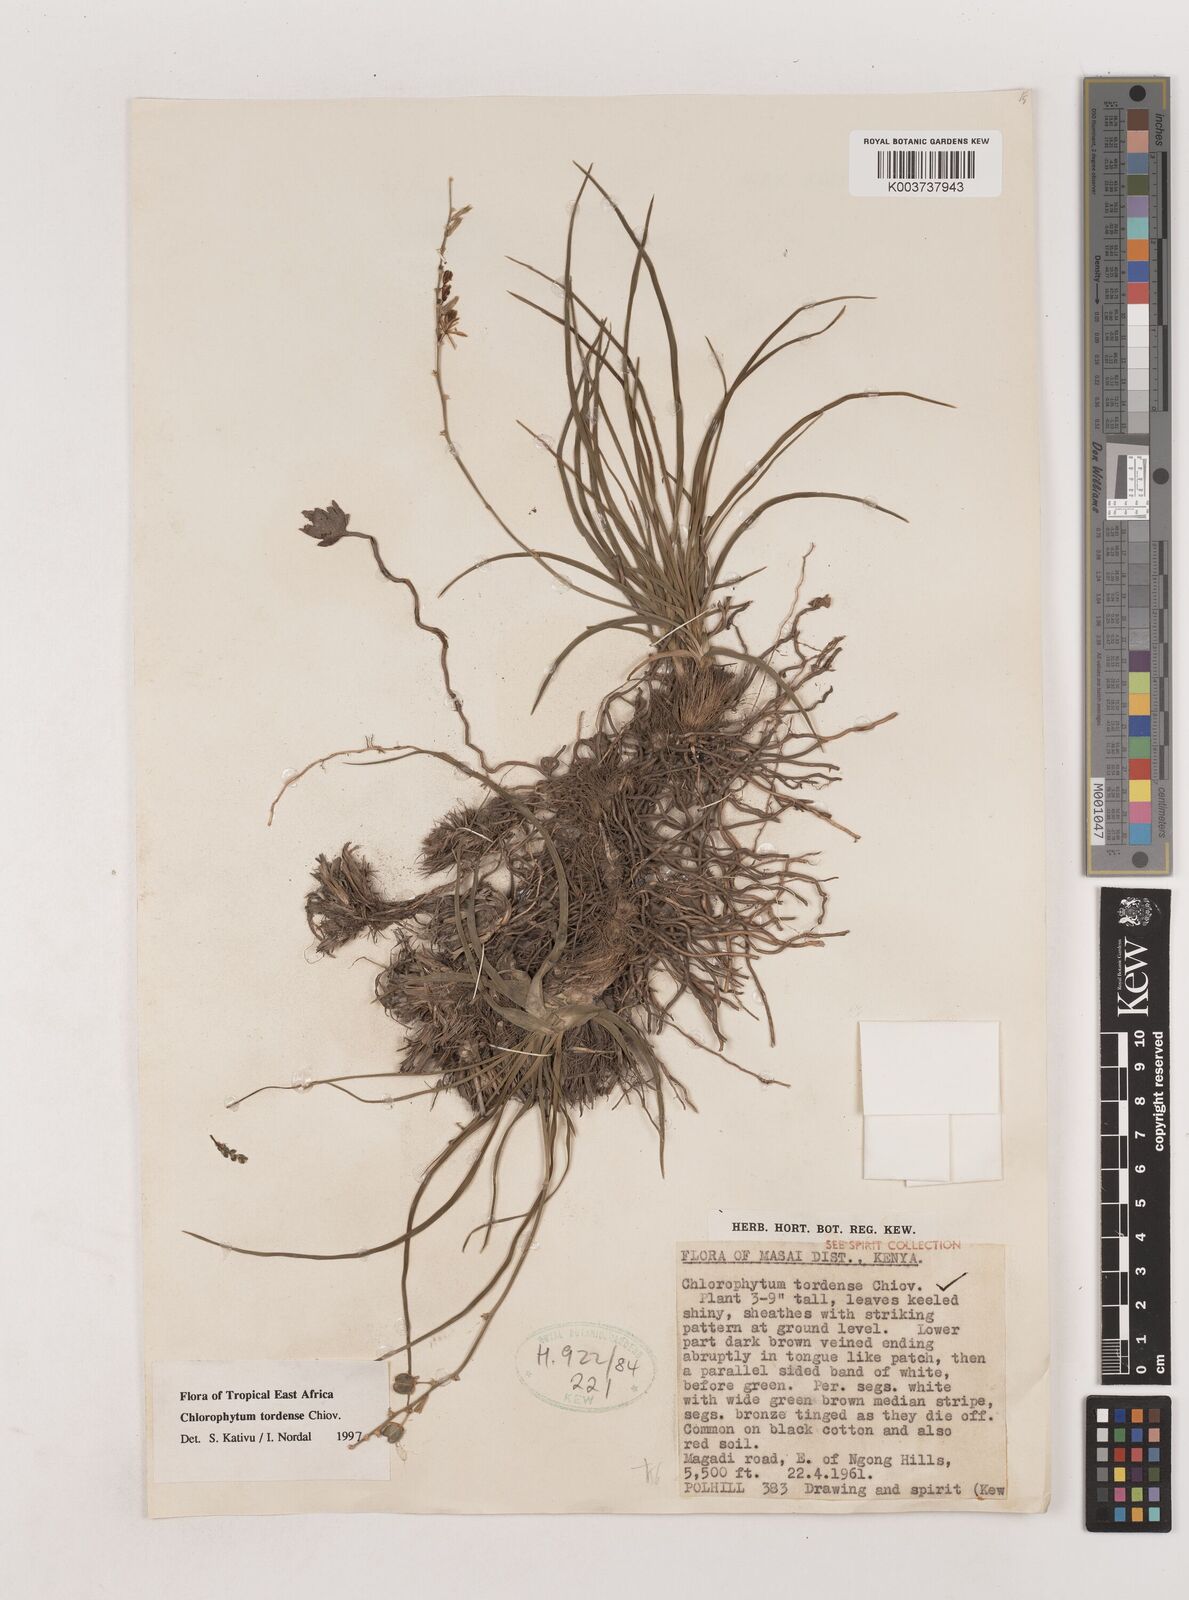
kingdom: Plantae
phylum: Tracheophyta
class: Liliopsida
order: Asparagales
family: Asparagaceae
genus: Chlorophytum
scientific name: Chlorophytum tordense
